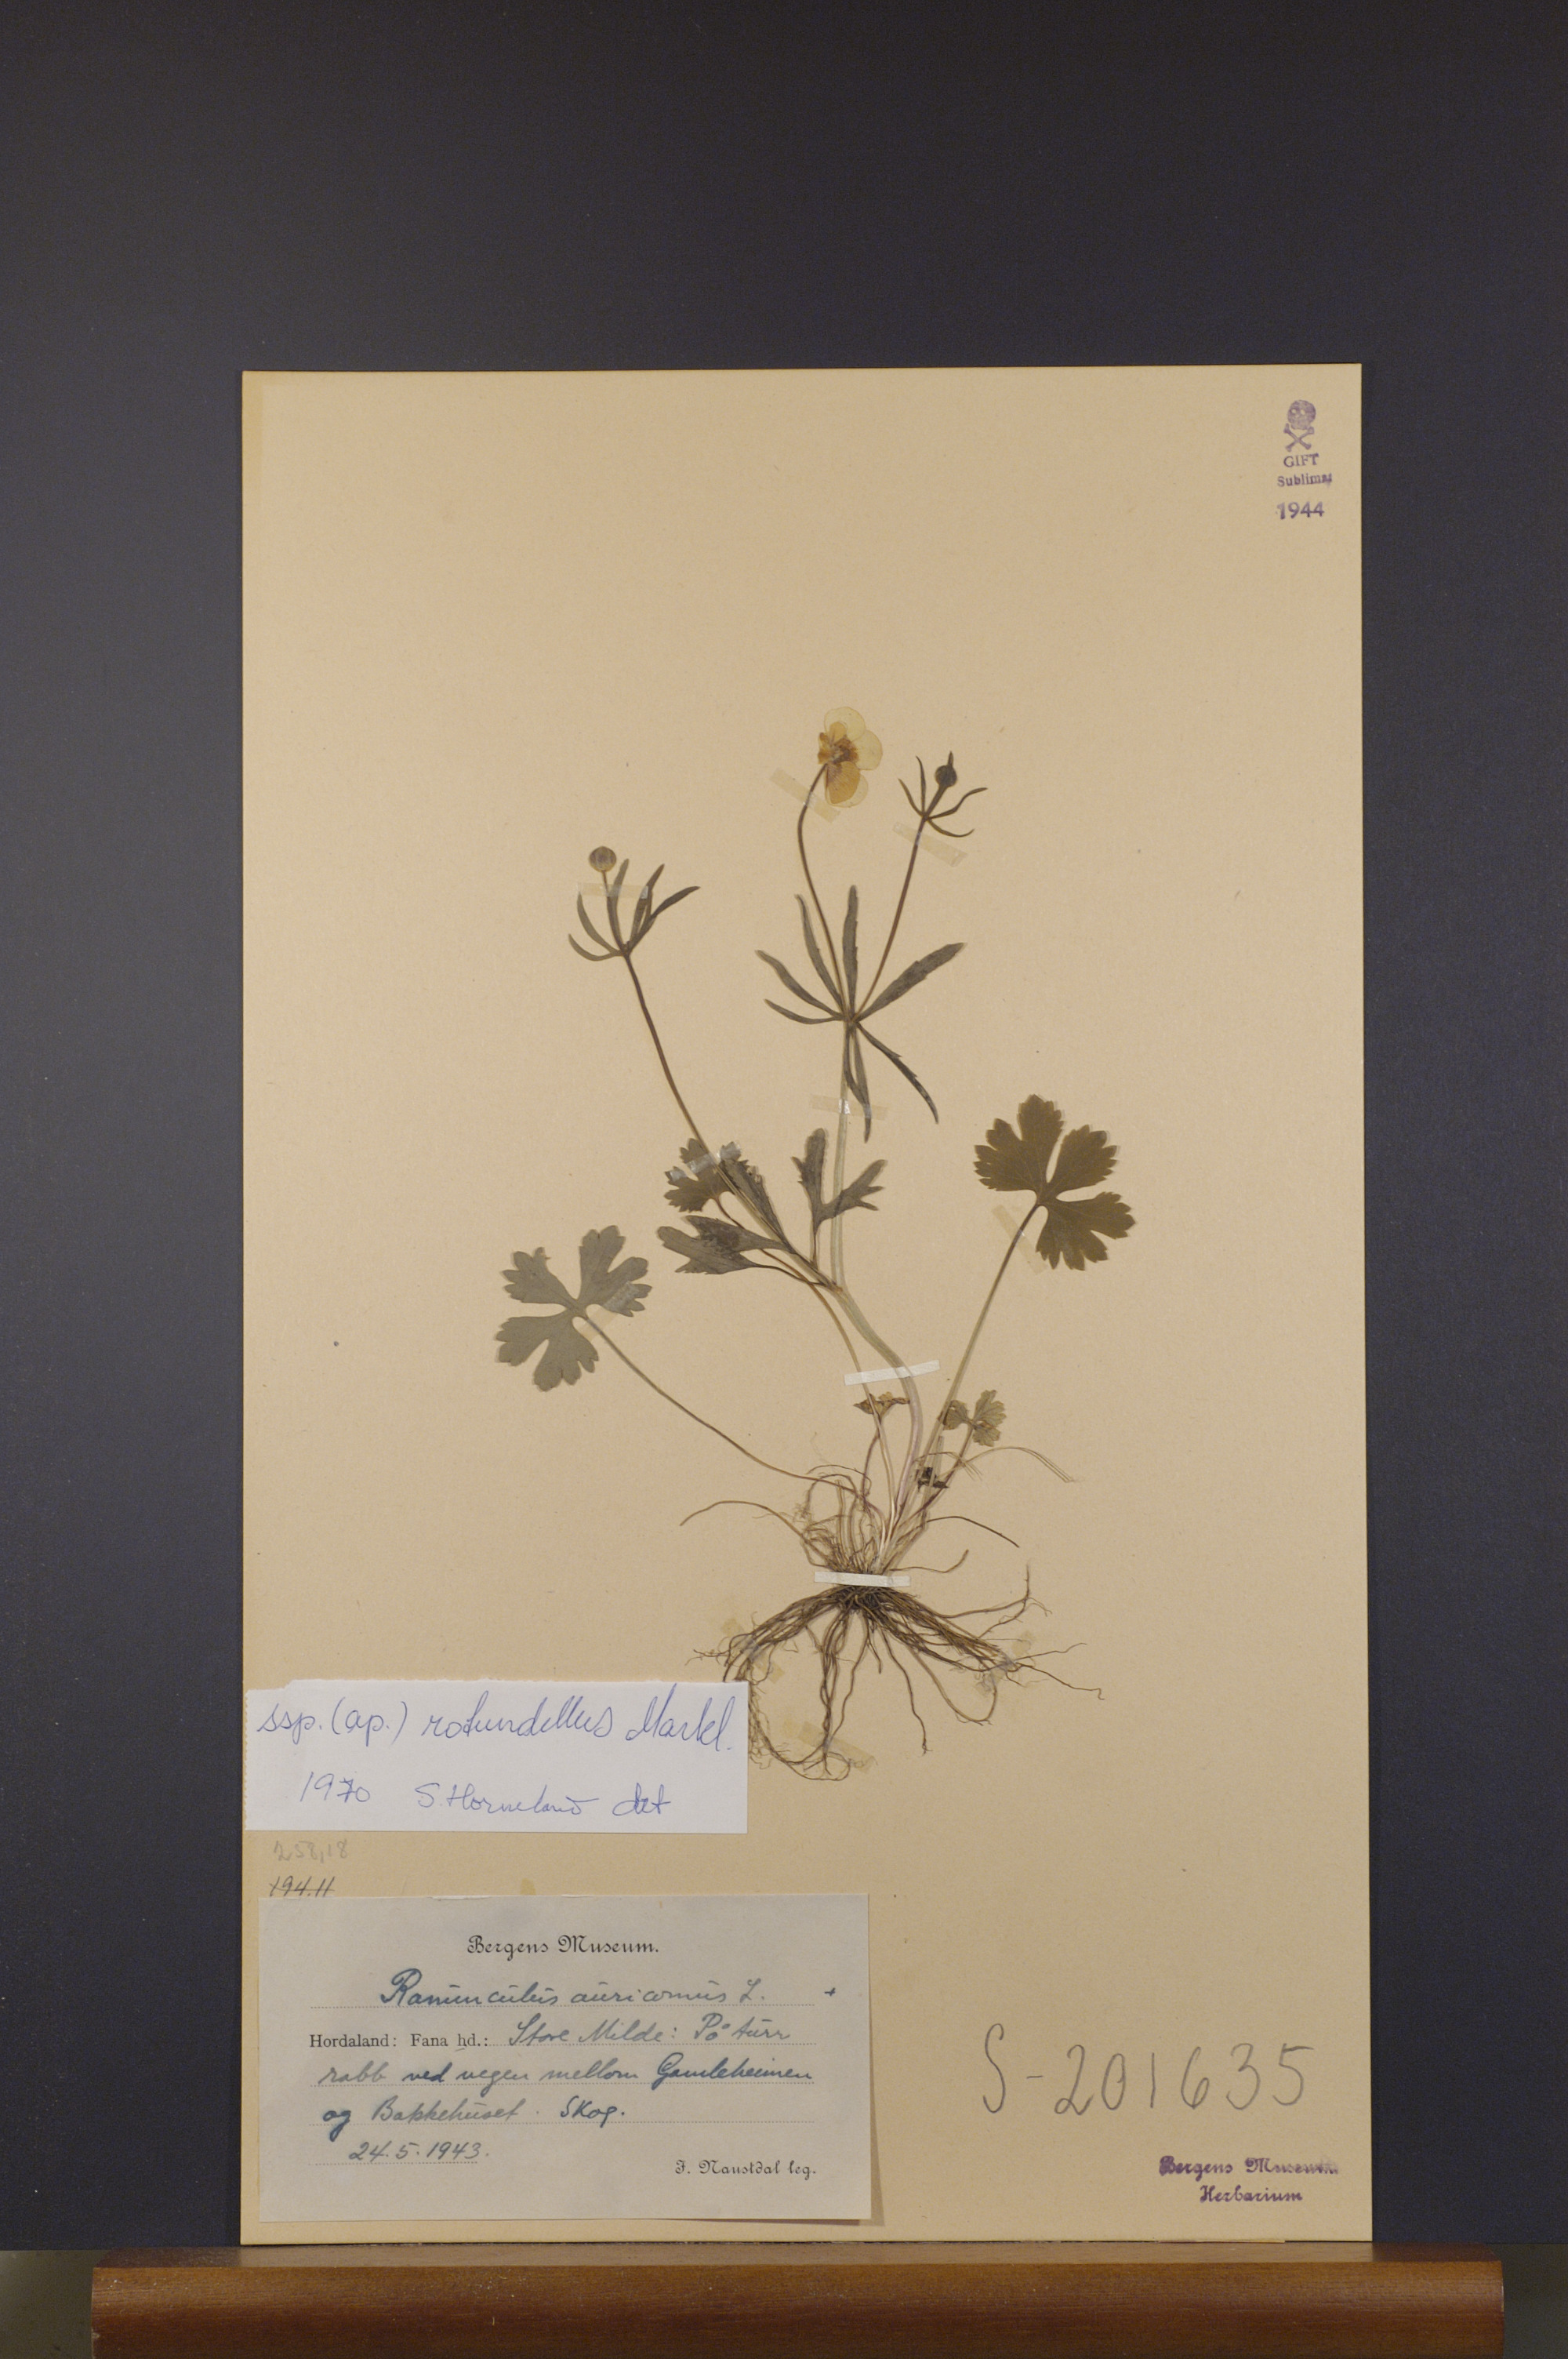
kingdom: Plantae
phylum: Tracheophyta
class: Magnoliopsida
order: Ranunculales
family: Ranunculaceae
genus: Ranunculus
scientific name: Ranunculus rotundellus
